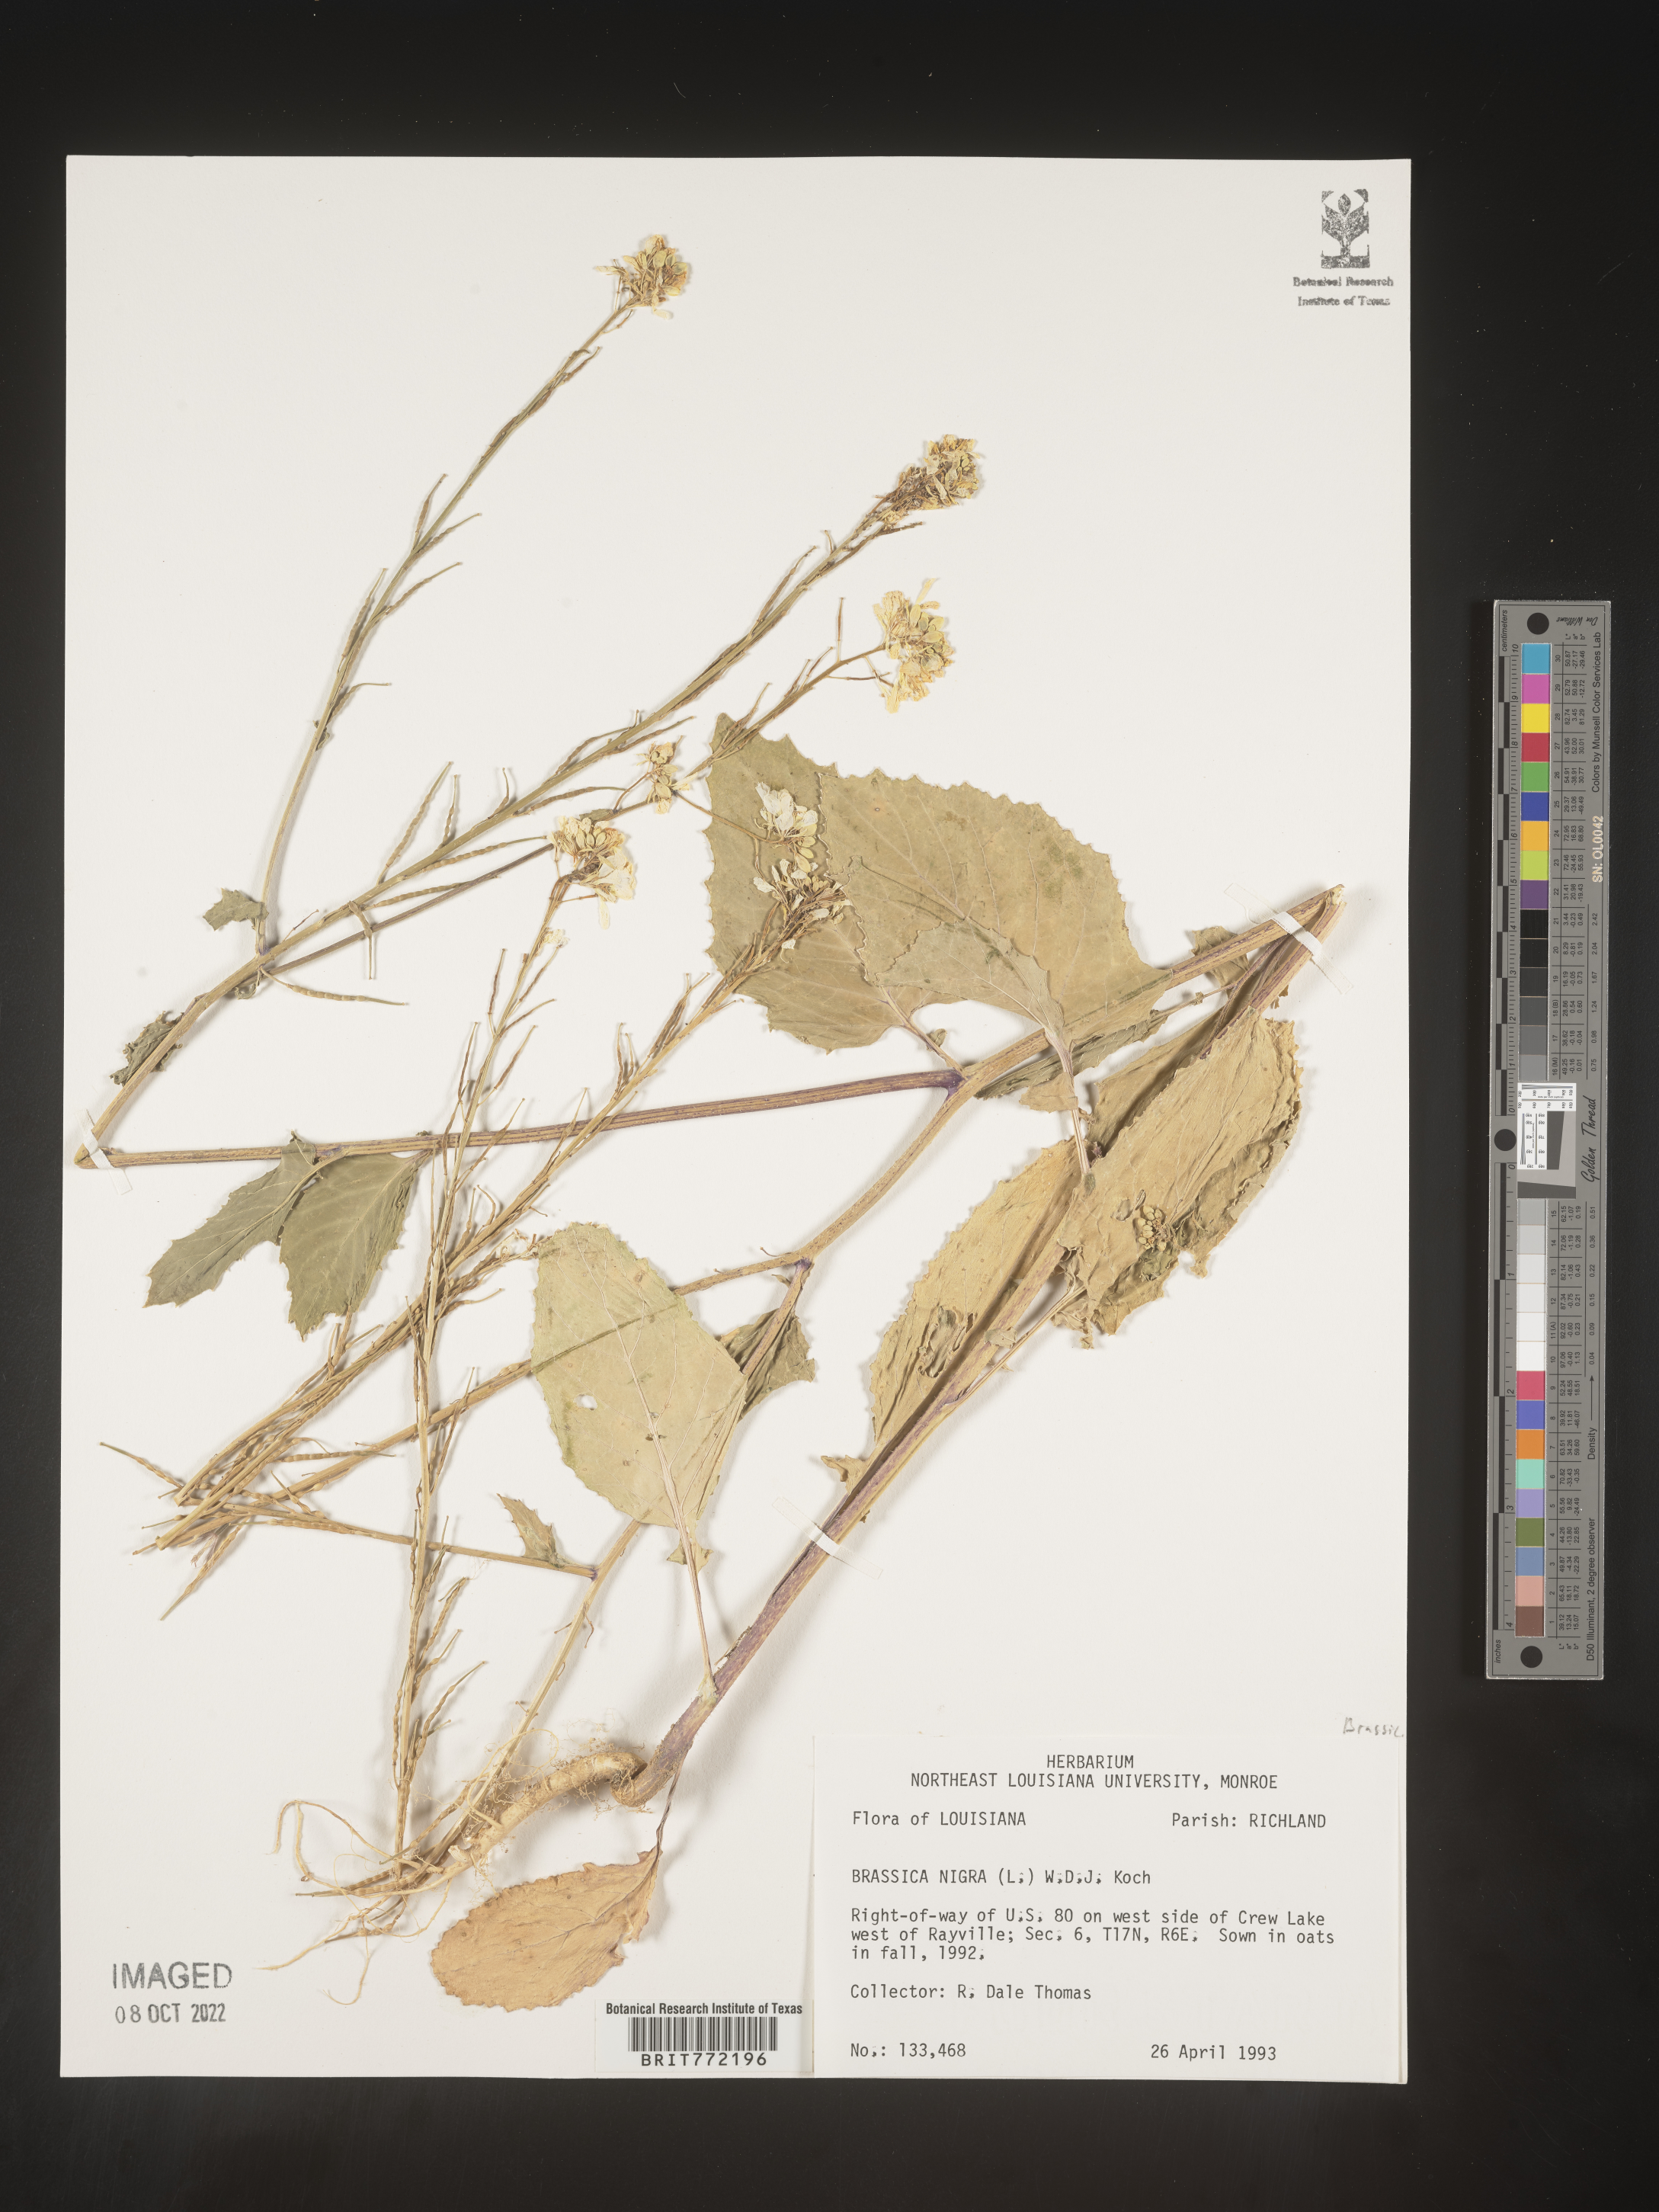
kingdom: Plantae
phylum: Tracheophyta
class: Magnoliopsida
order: Brassicales
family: Brassicaceae
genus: Brassica
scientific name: Brassica nigra
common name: Black mustard
